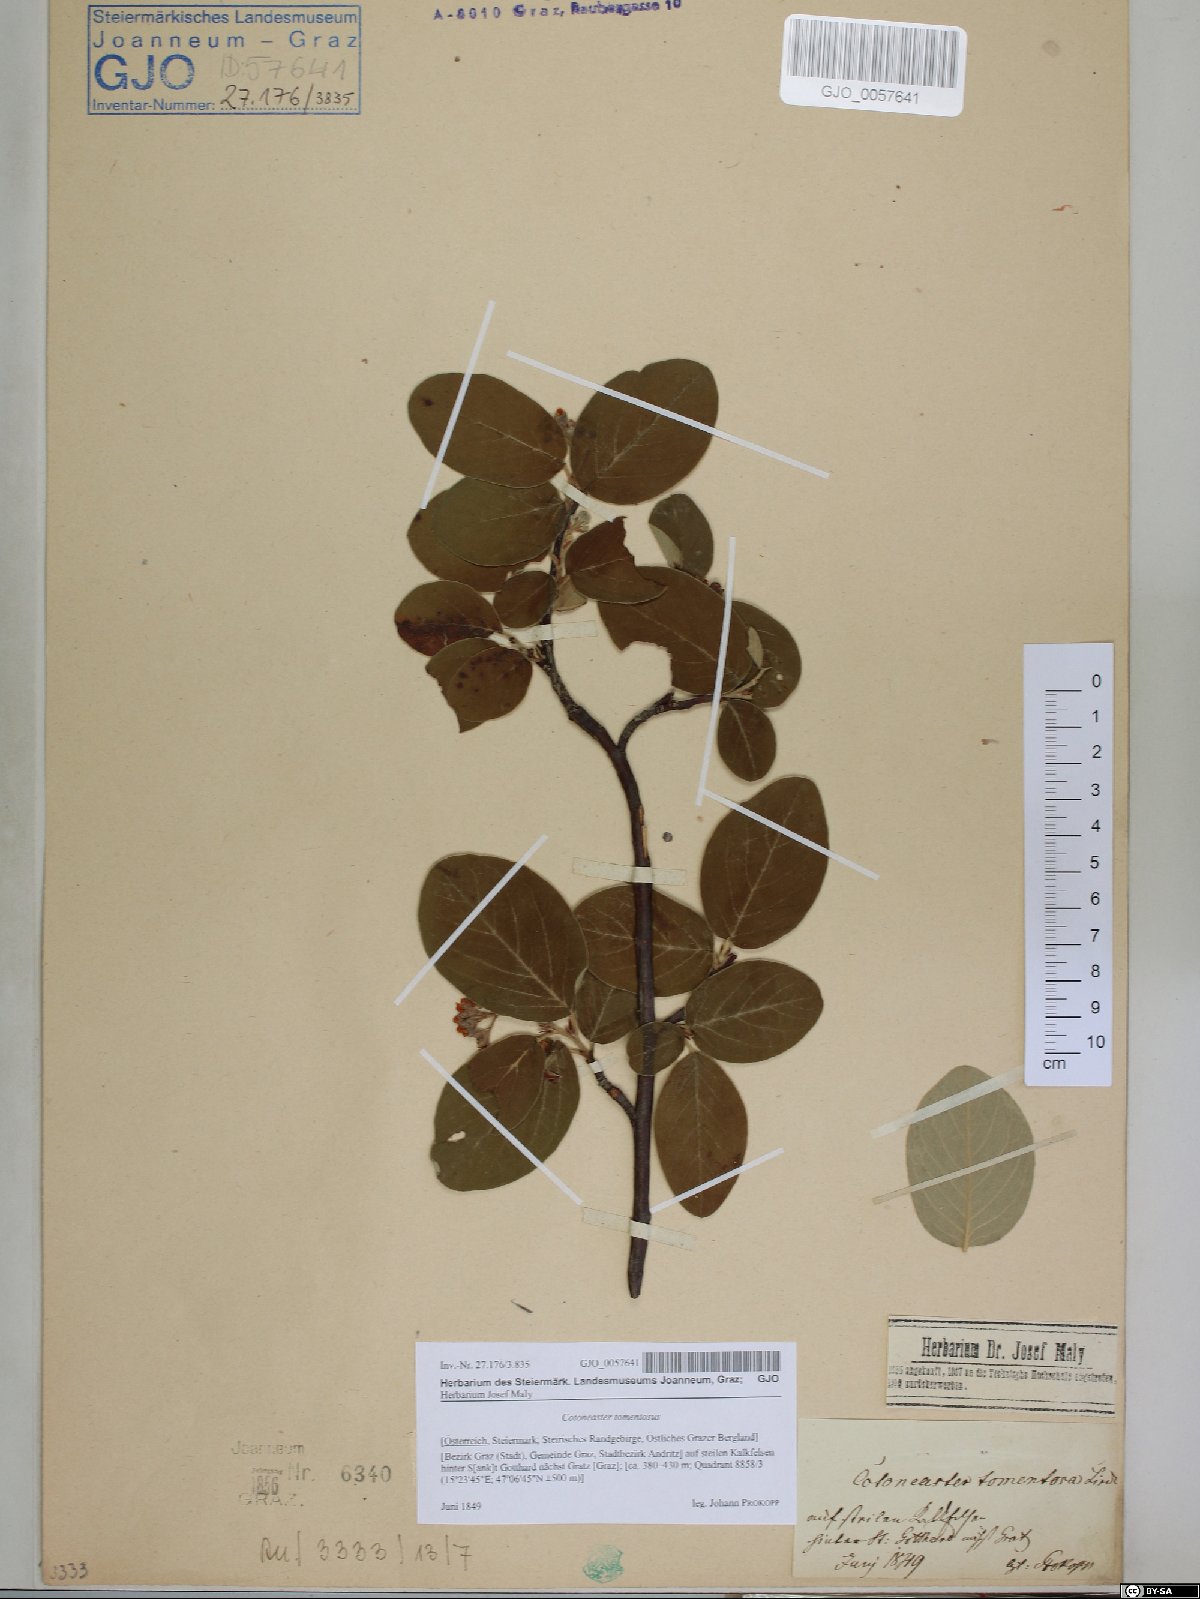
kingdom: Plantae
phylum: Tracheophyta
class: Magnoliopsida
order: Rosales
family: Rosaceae
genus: Cotoneaster
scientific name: Cotoneaster tomentosus
